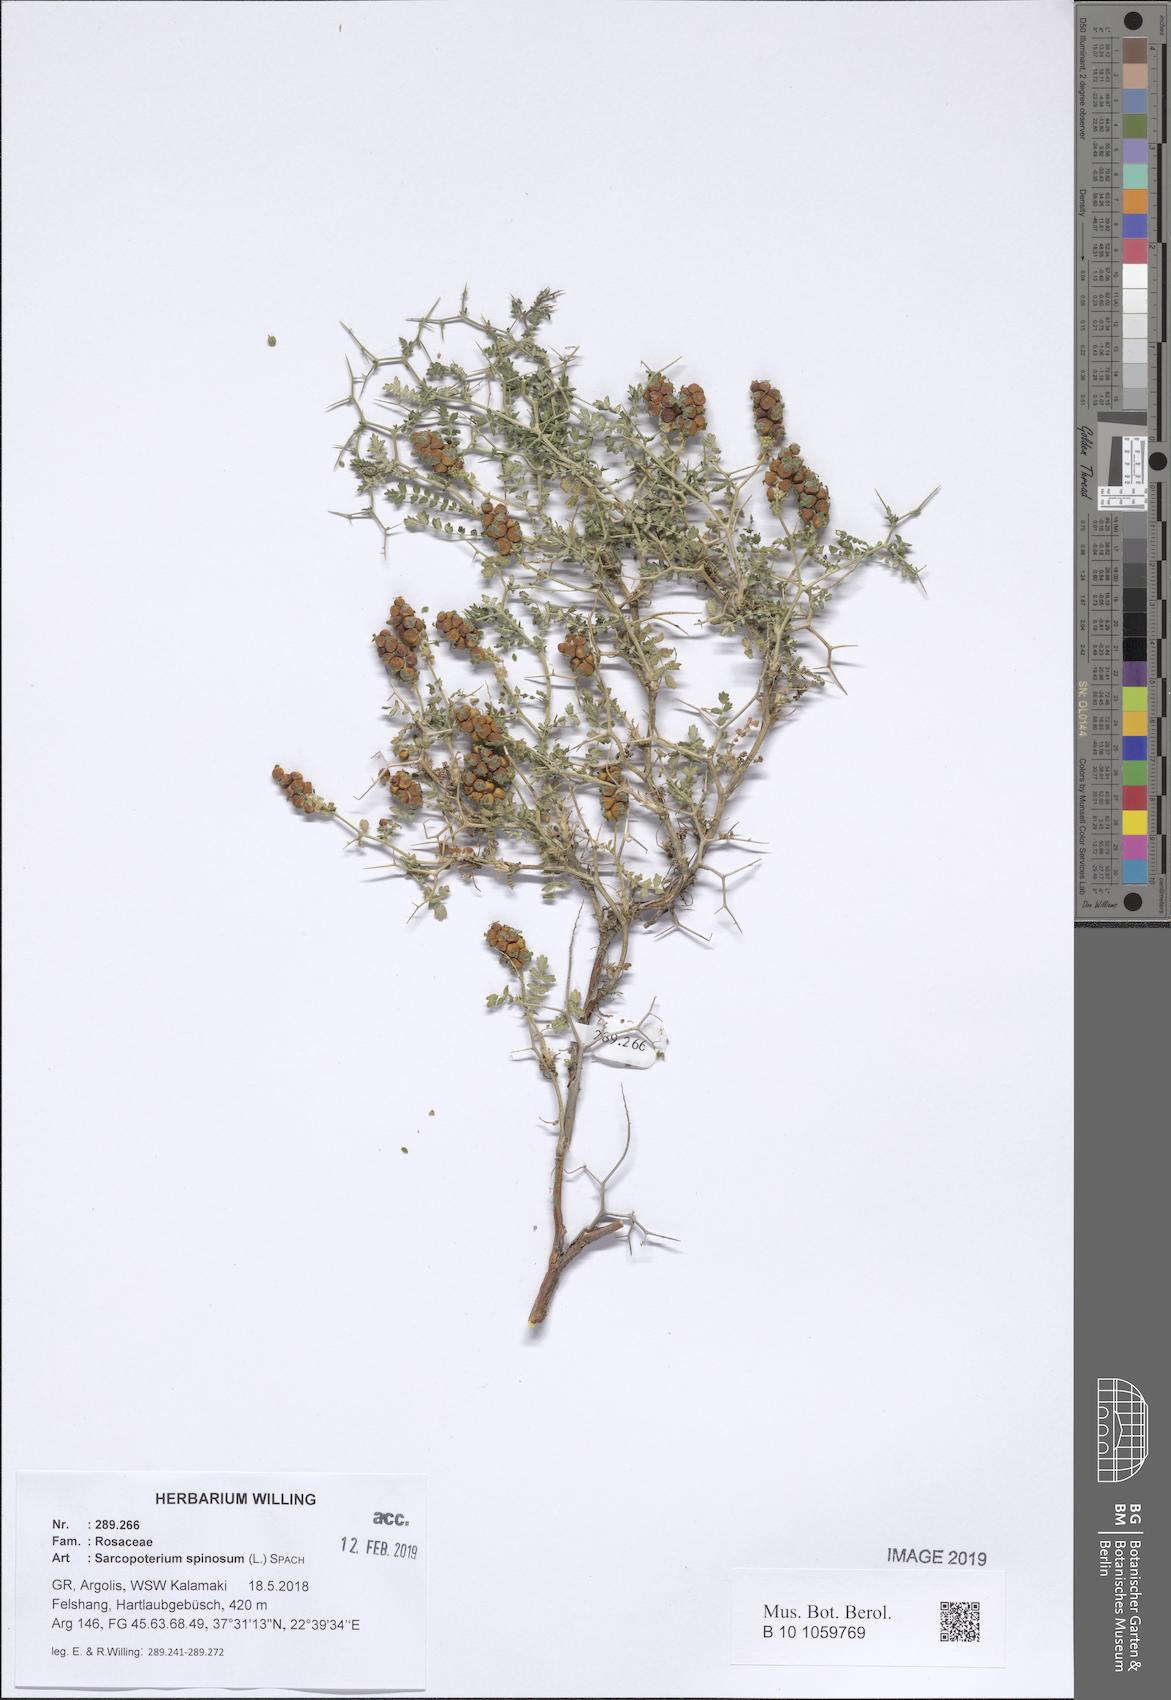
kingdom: Plantae
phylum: Tracheophyta
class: Magnoliopsida
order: Rosales
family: Rosaceae
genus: Sarcopoterium
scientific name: Sarcopoterium spinosum
